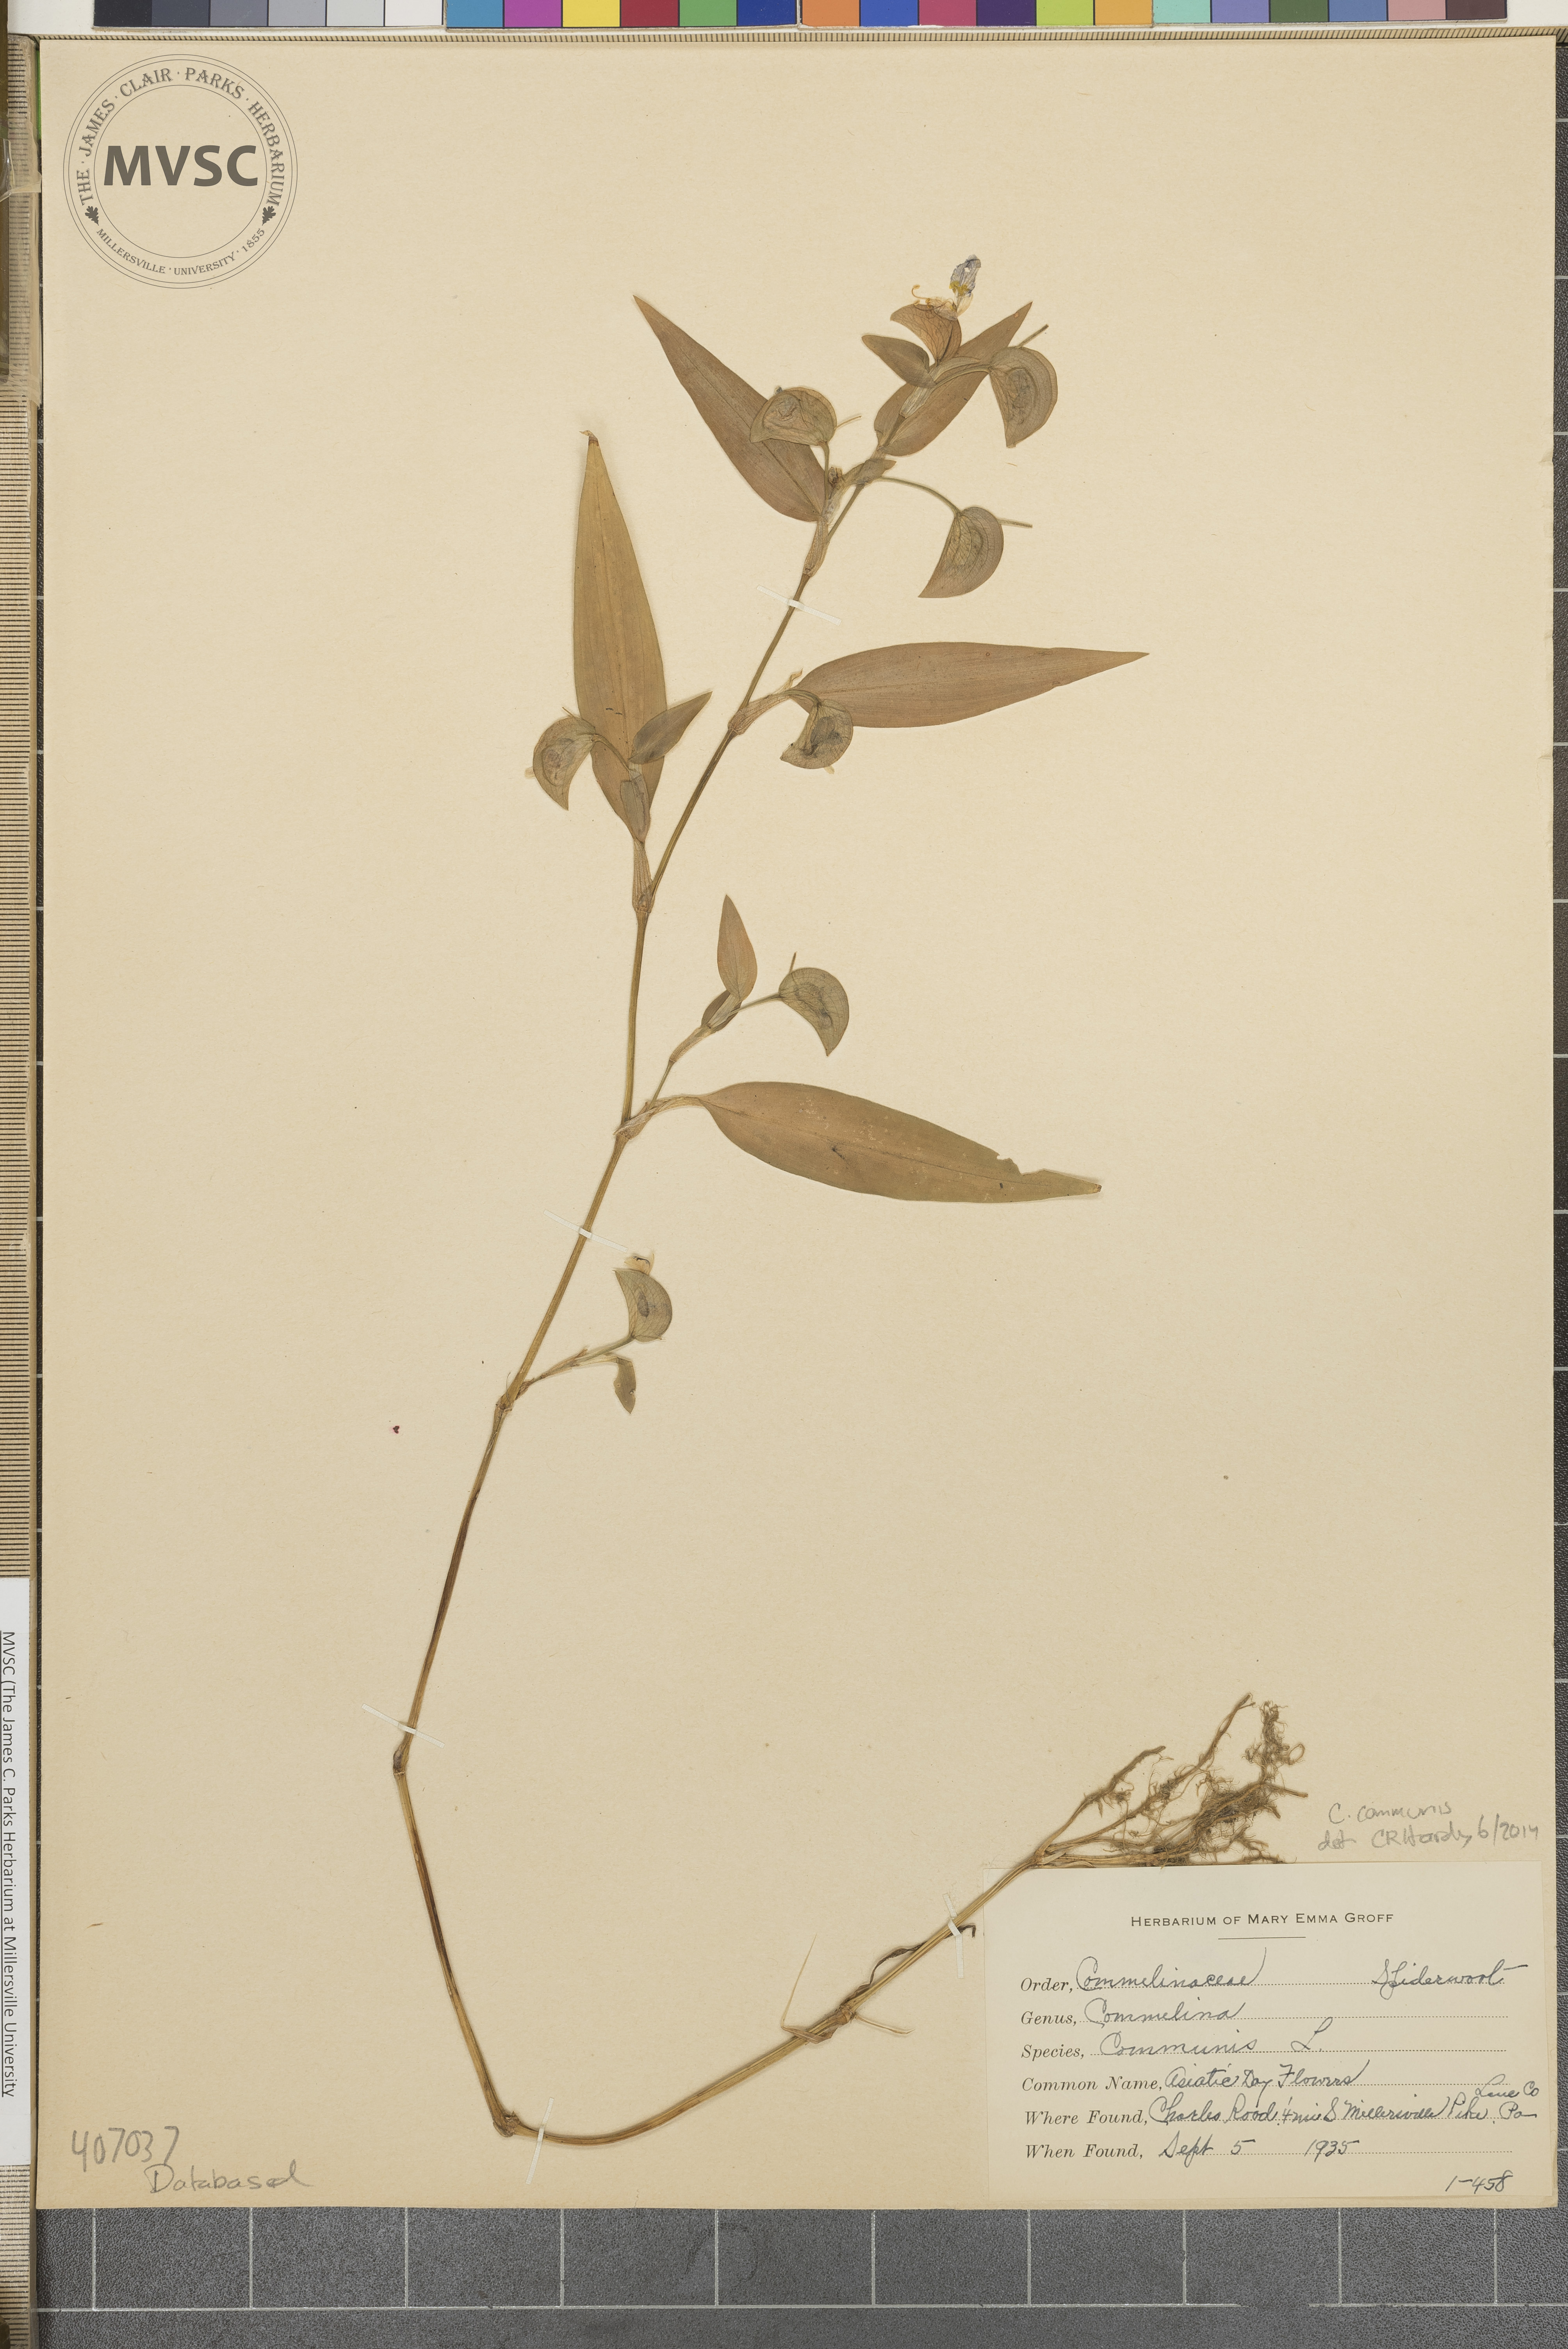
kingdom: Plantae
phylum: Tracheophyta
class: Liliopsida
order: Commelinales
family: Commelinaceae
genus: Commelina
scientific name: Commelina communis
